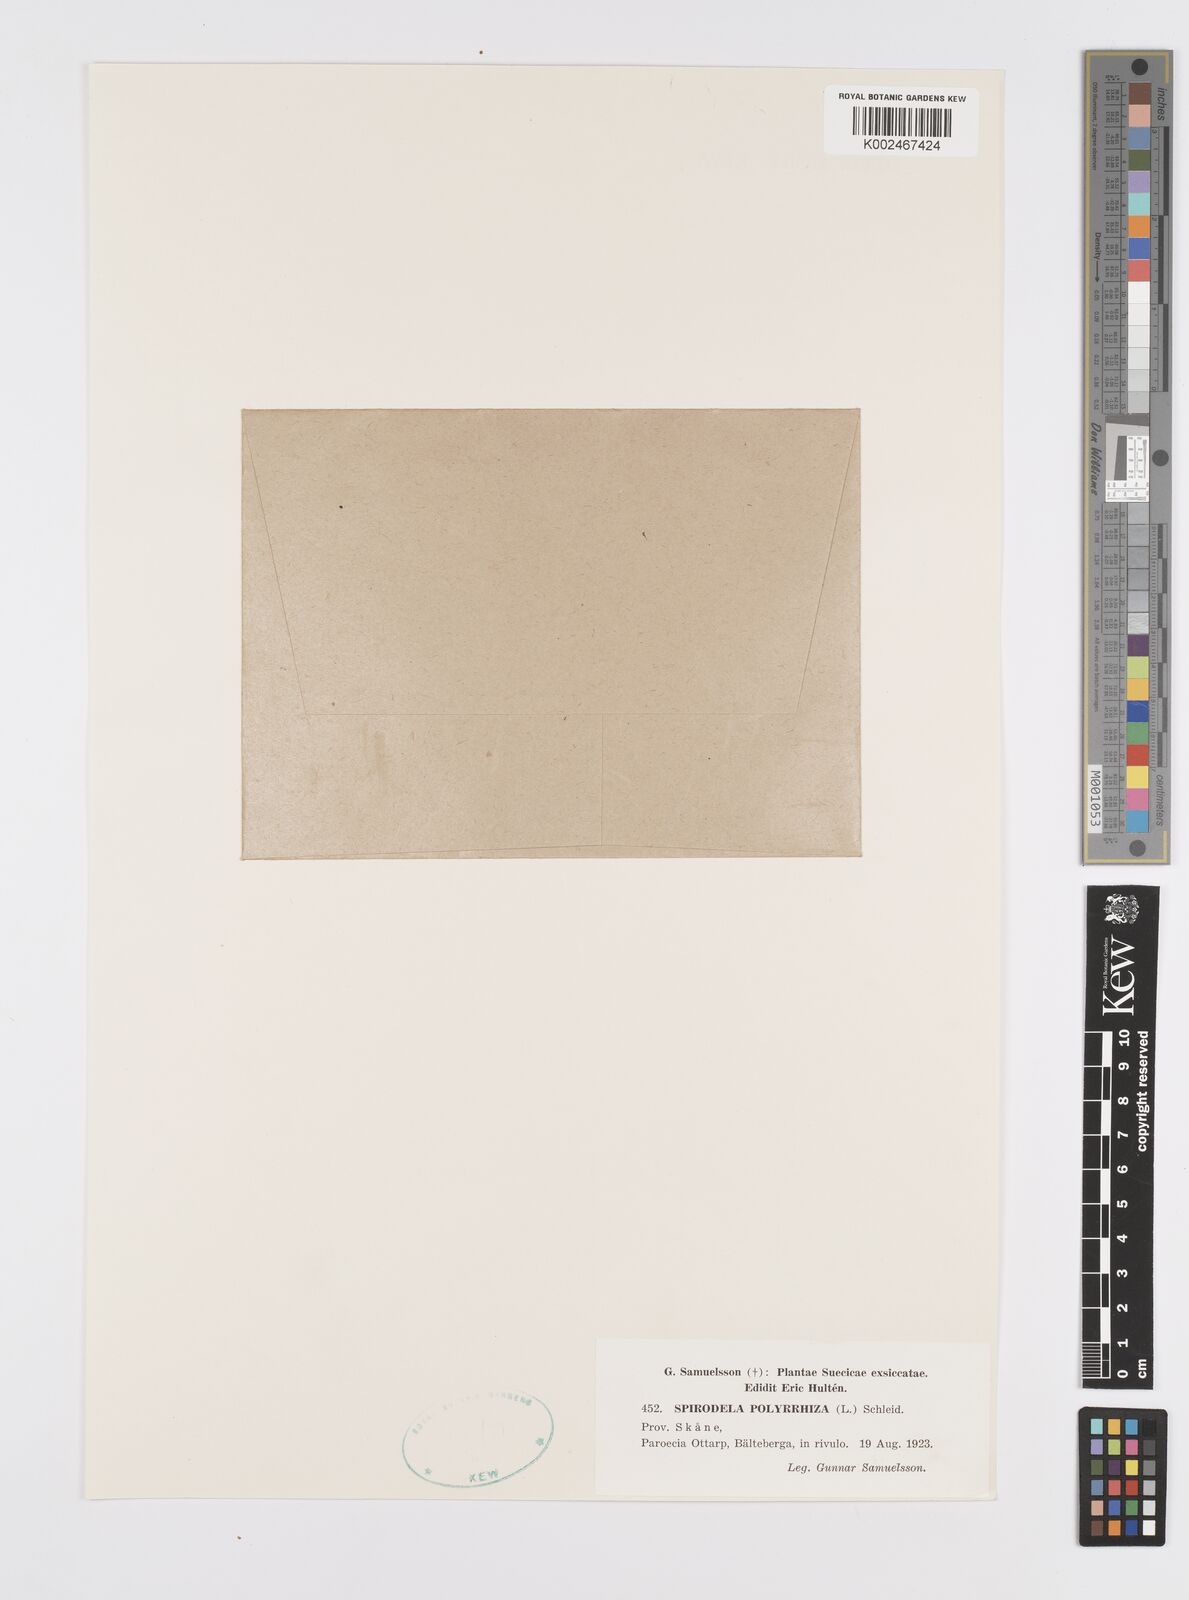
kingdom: Plantae
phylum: Tracheophyta
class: Liliopsida
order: Alismatales
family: Araceae
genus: Spirodela
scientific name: Spirodela polyrhiza
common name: Great duckweed
